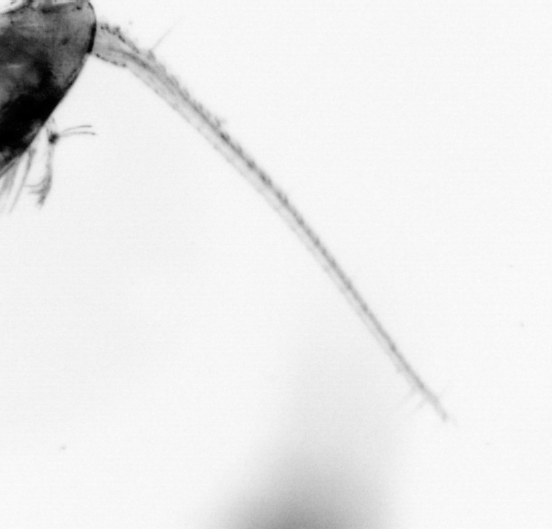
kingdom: Animalia
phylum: Arthropoda
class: Copepoda
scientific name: Copepoda
